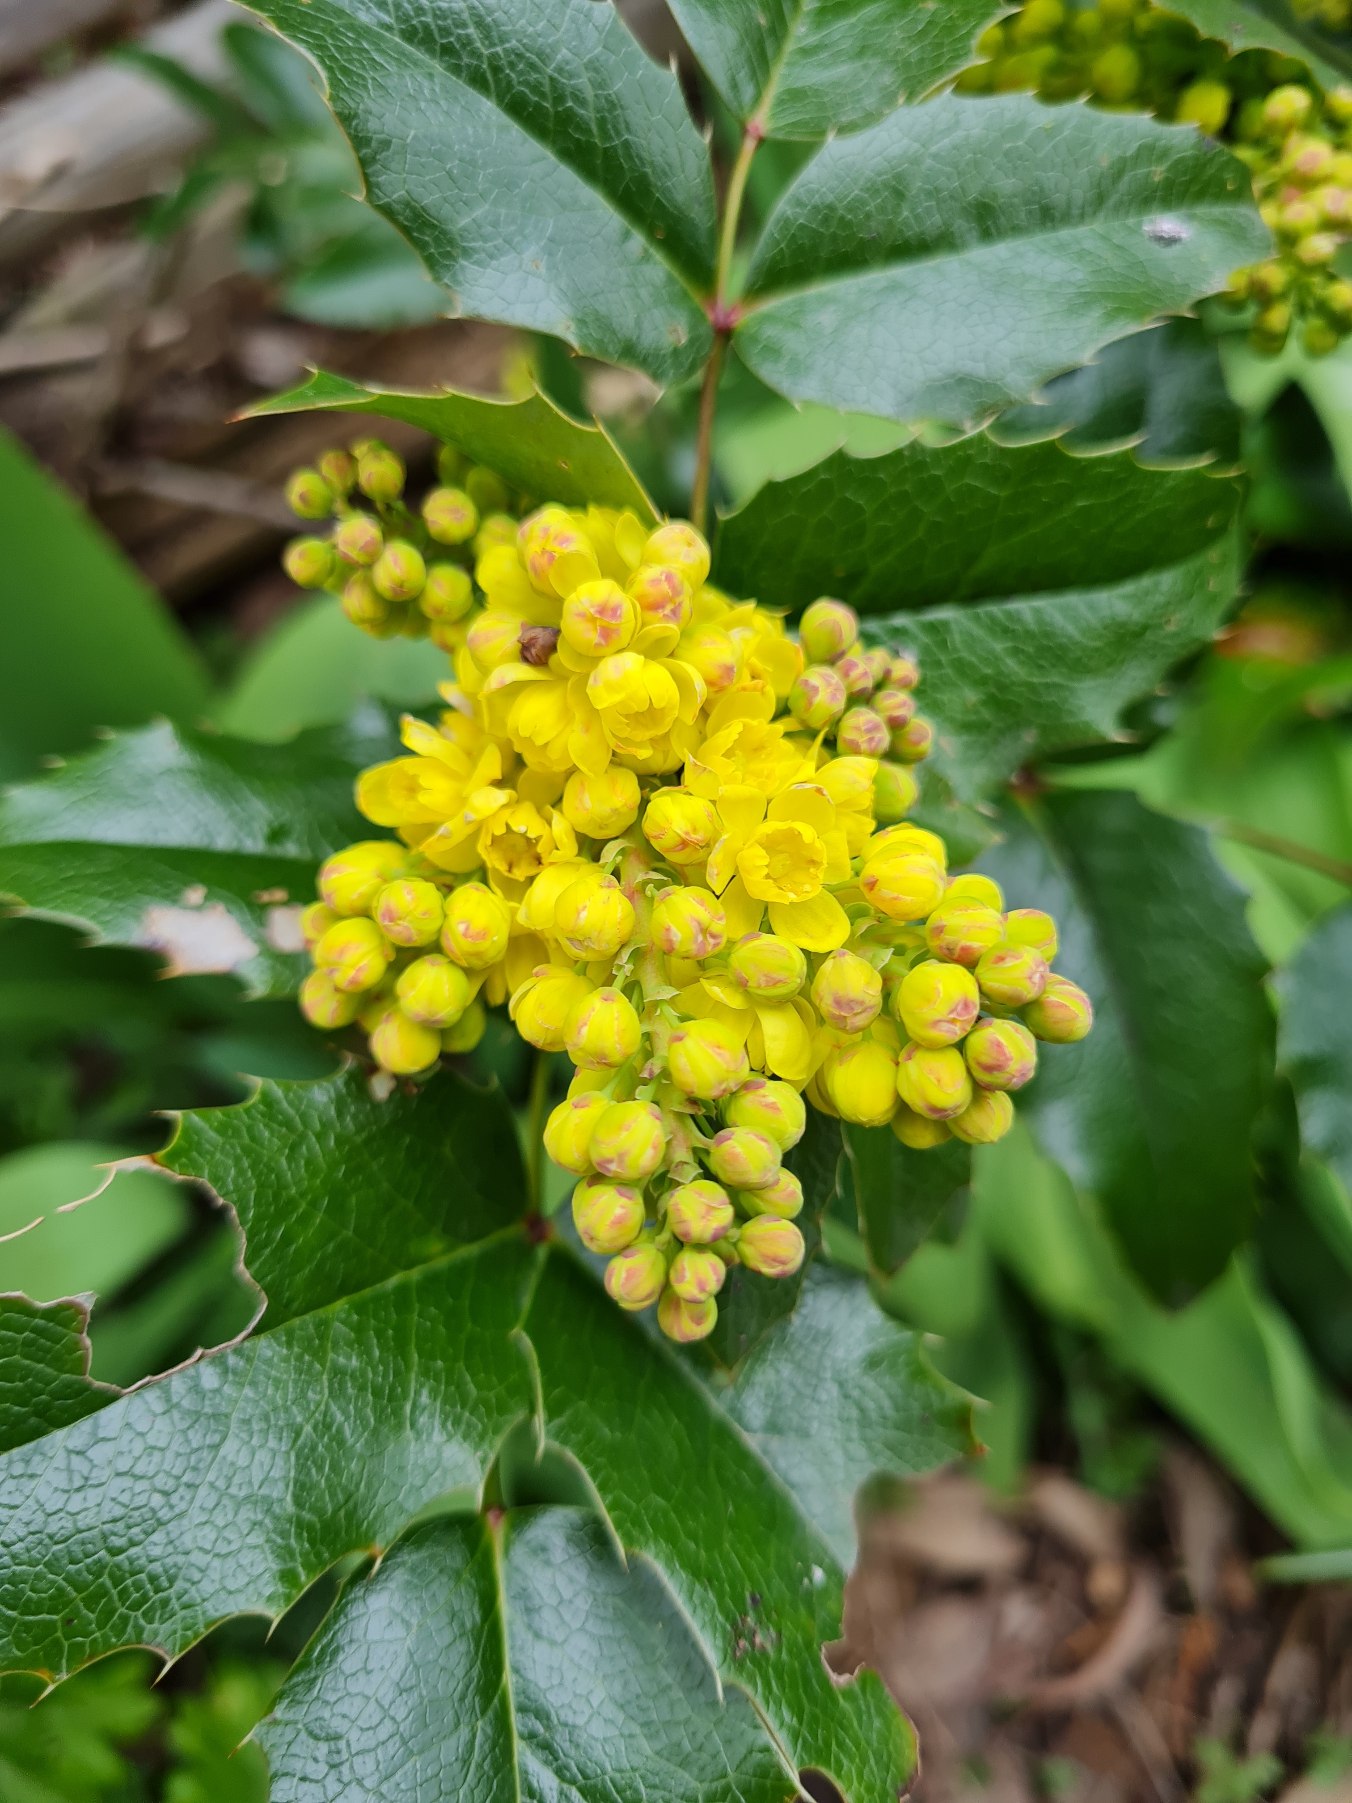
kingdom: Plantae
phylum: Tracheophyta
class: Magnoliopsida
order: Ranunculales
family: Berberidaceae
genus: Mahonia
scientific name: Mahonia aquifolium
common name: Almindelig mahonie
